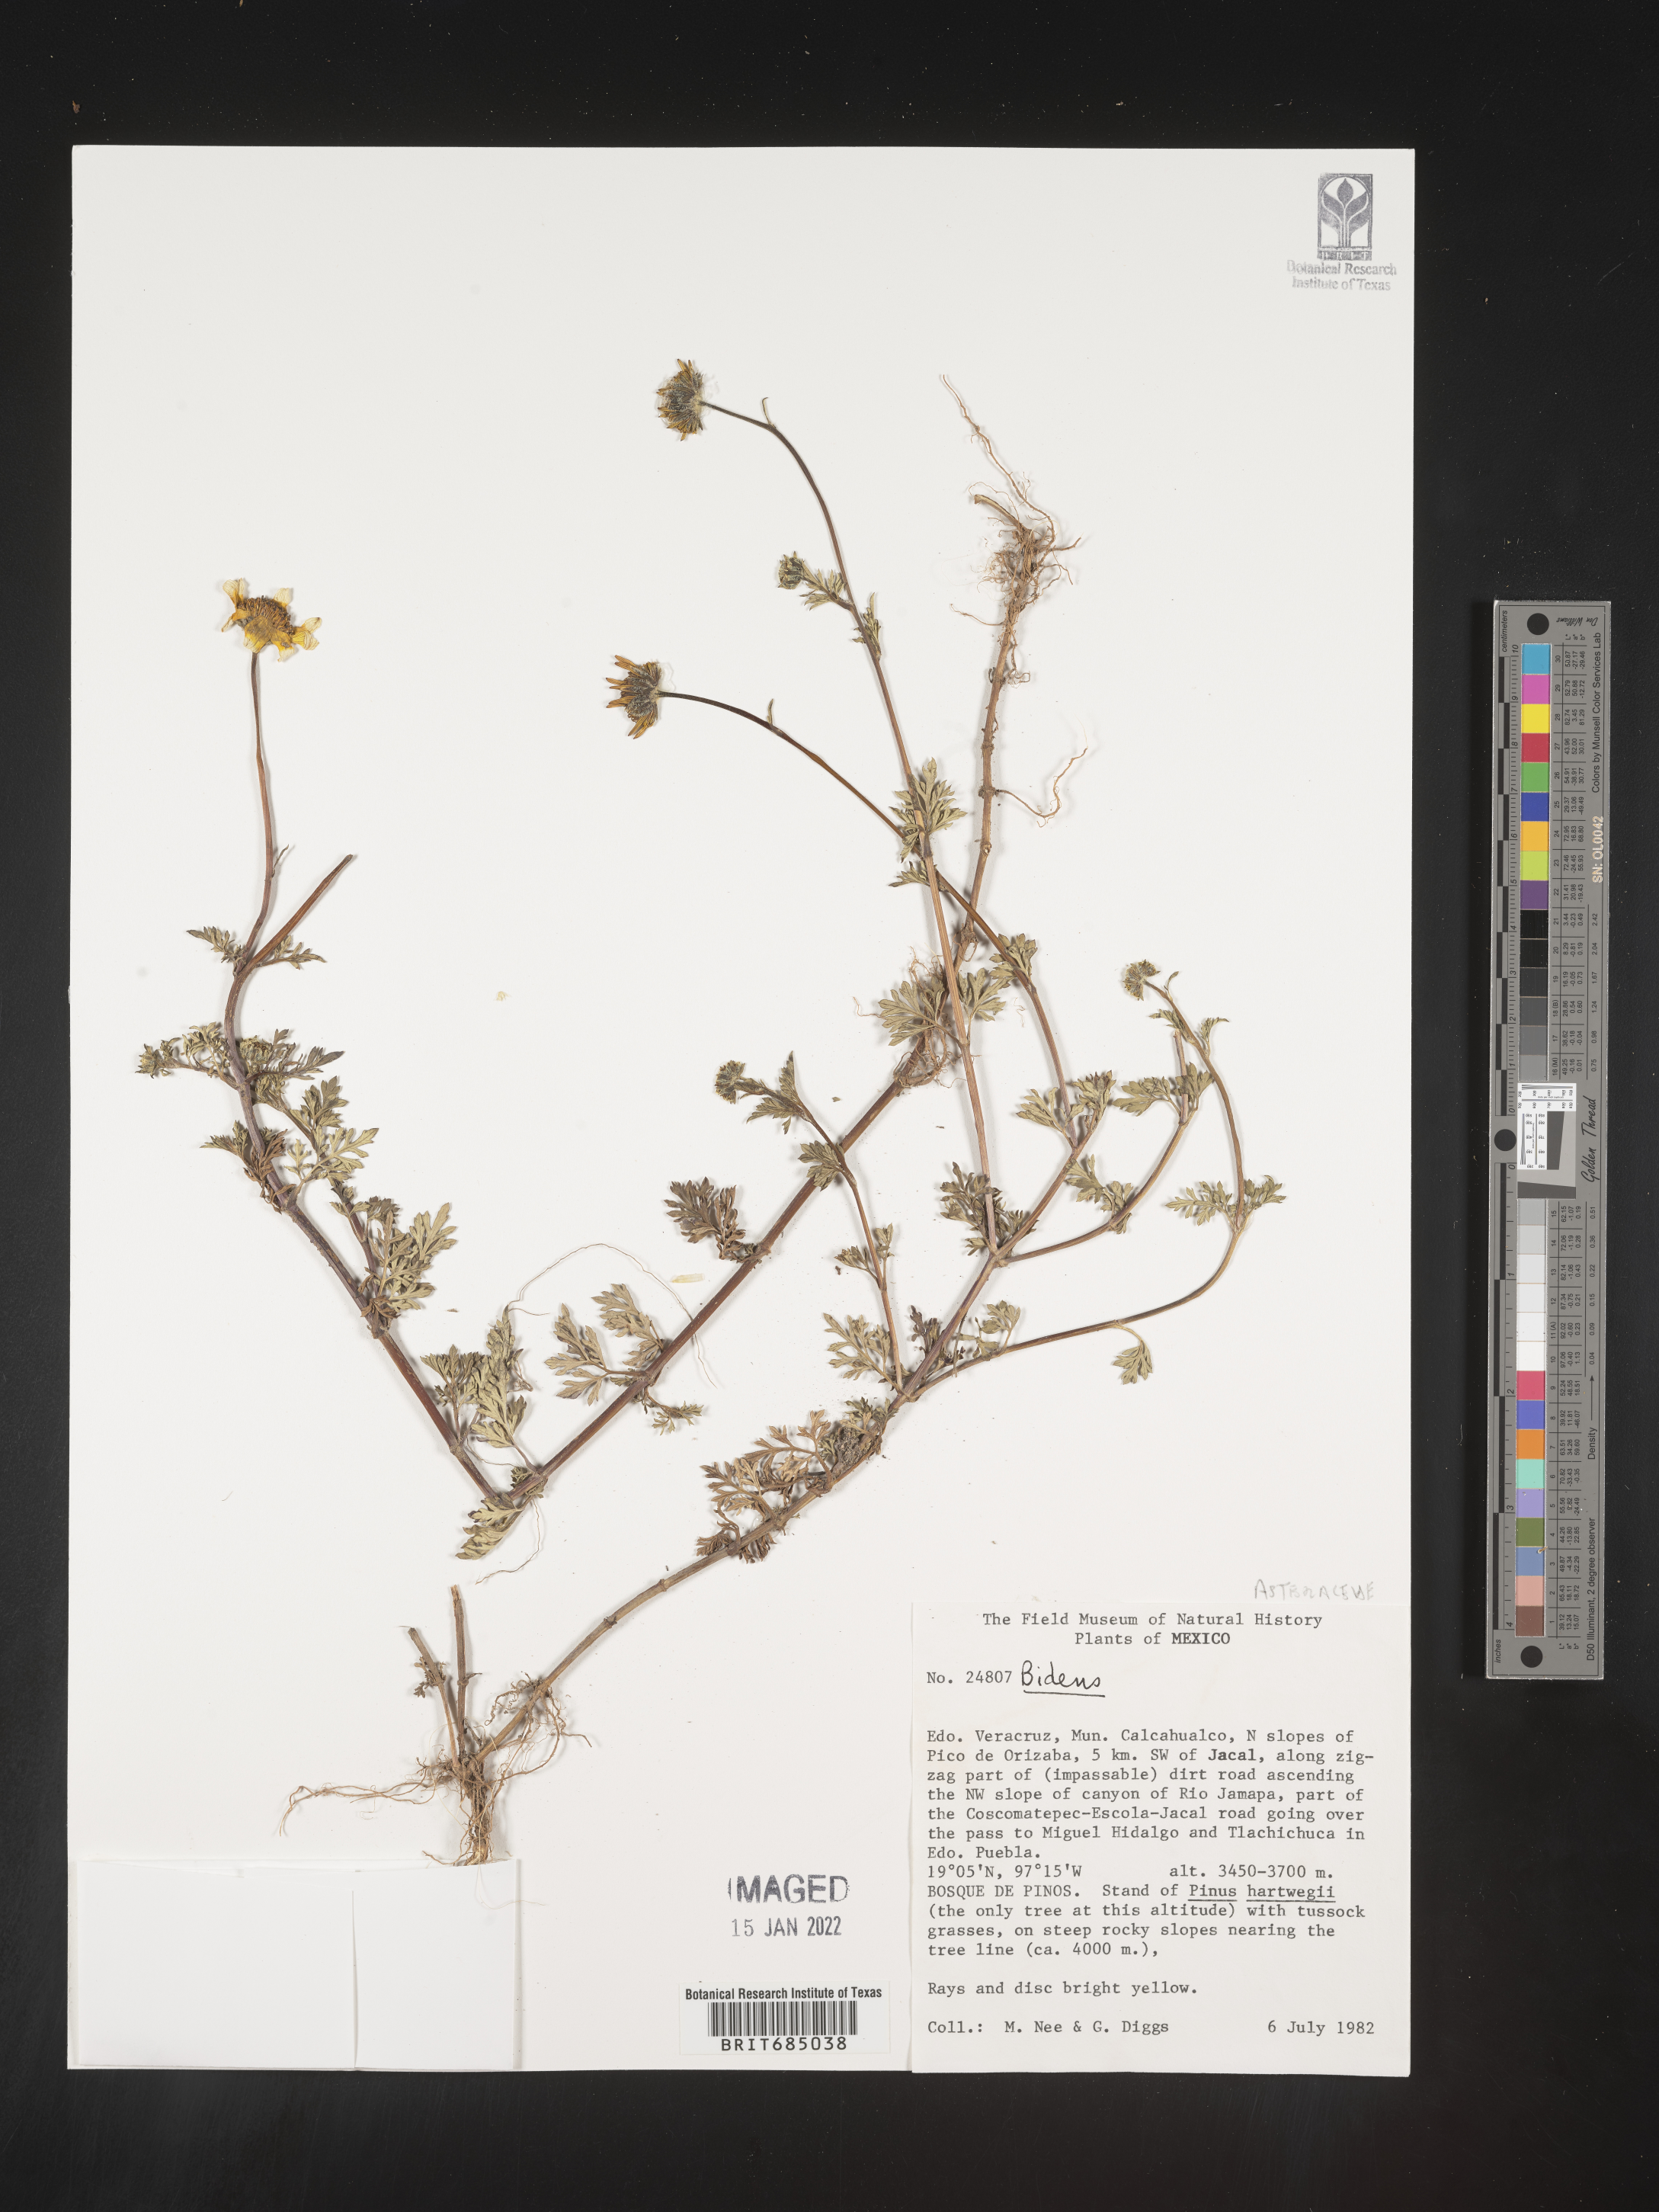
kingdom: Plantae
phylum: Tracheophyta
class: Magnoliopsida
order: Asterales
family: Asteraceae
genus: Bidens
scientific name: Bidens
